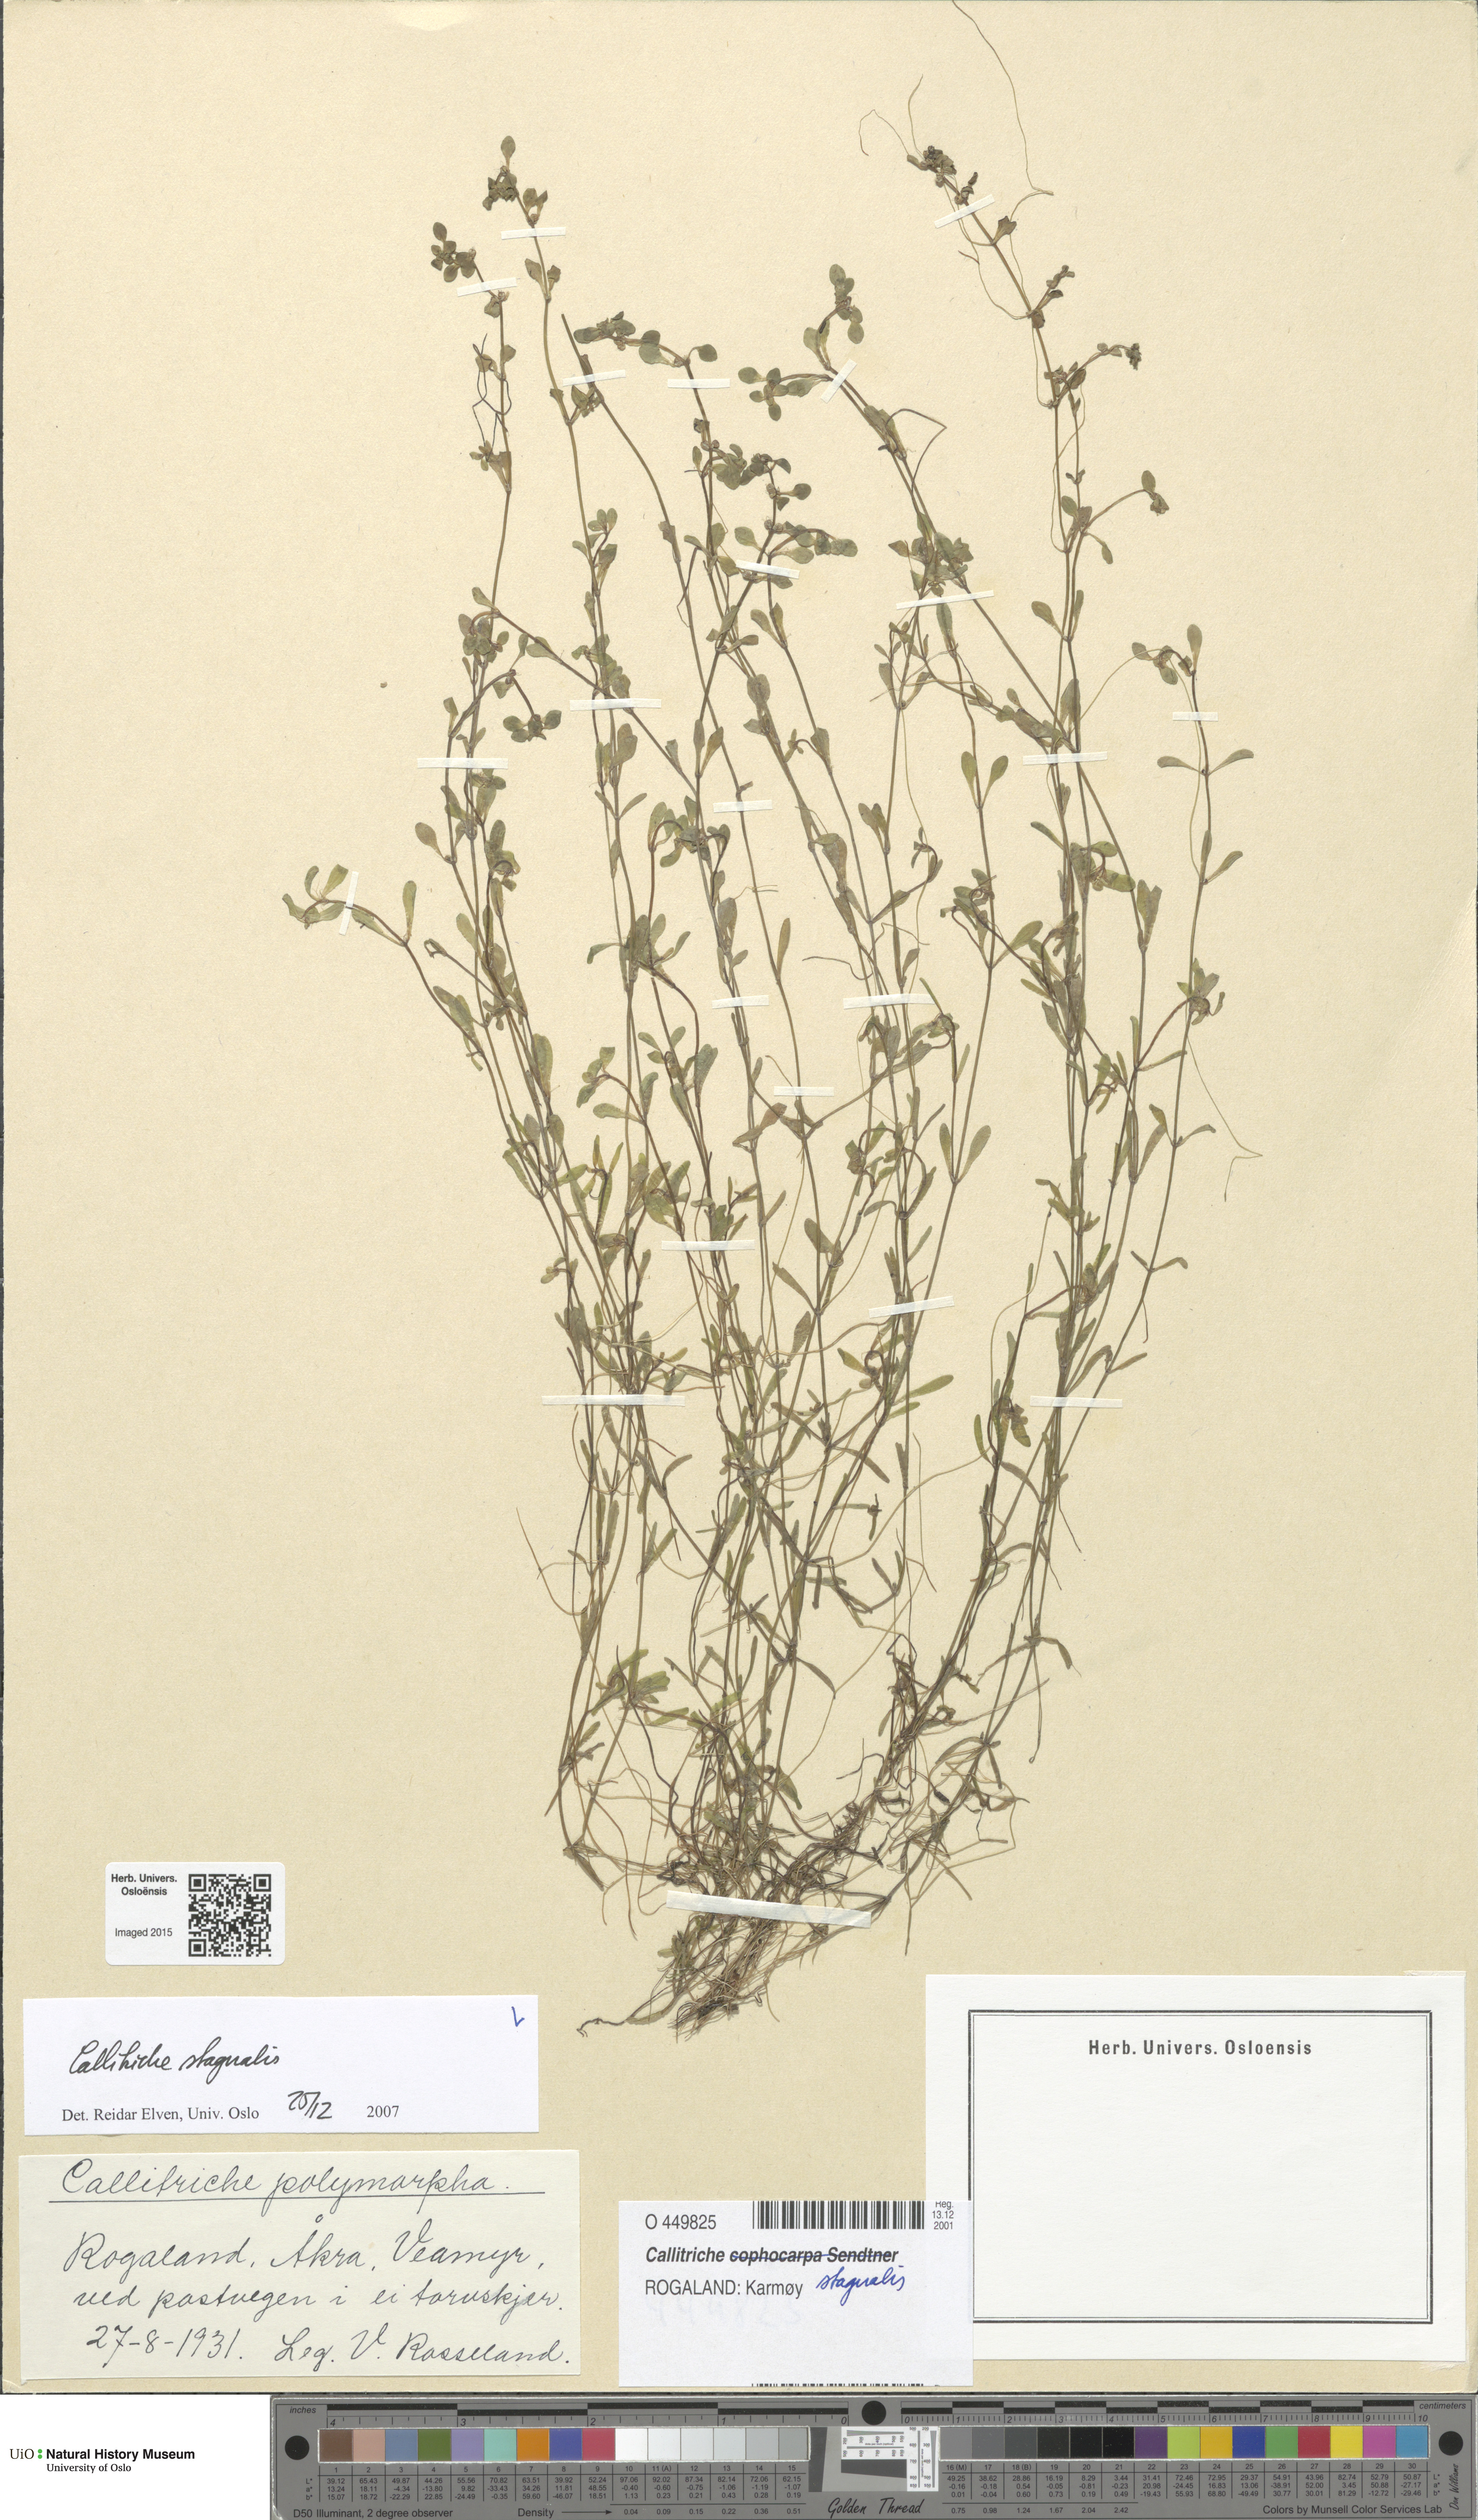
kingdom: Plantae
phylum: Tracheophyta
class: Magnoliopsida
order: Lamiales
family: Plantaginaceae
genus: Callitriche
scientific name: Callitriche stagnalis
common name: Common water-starwort
